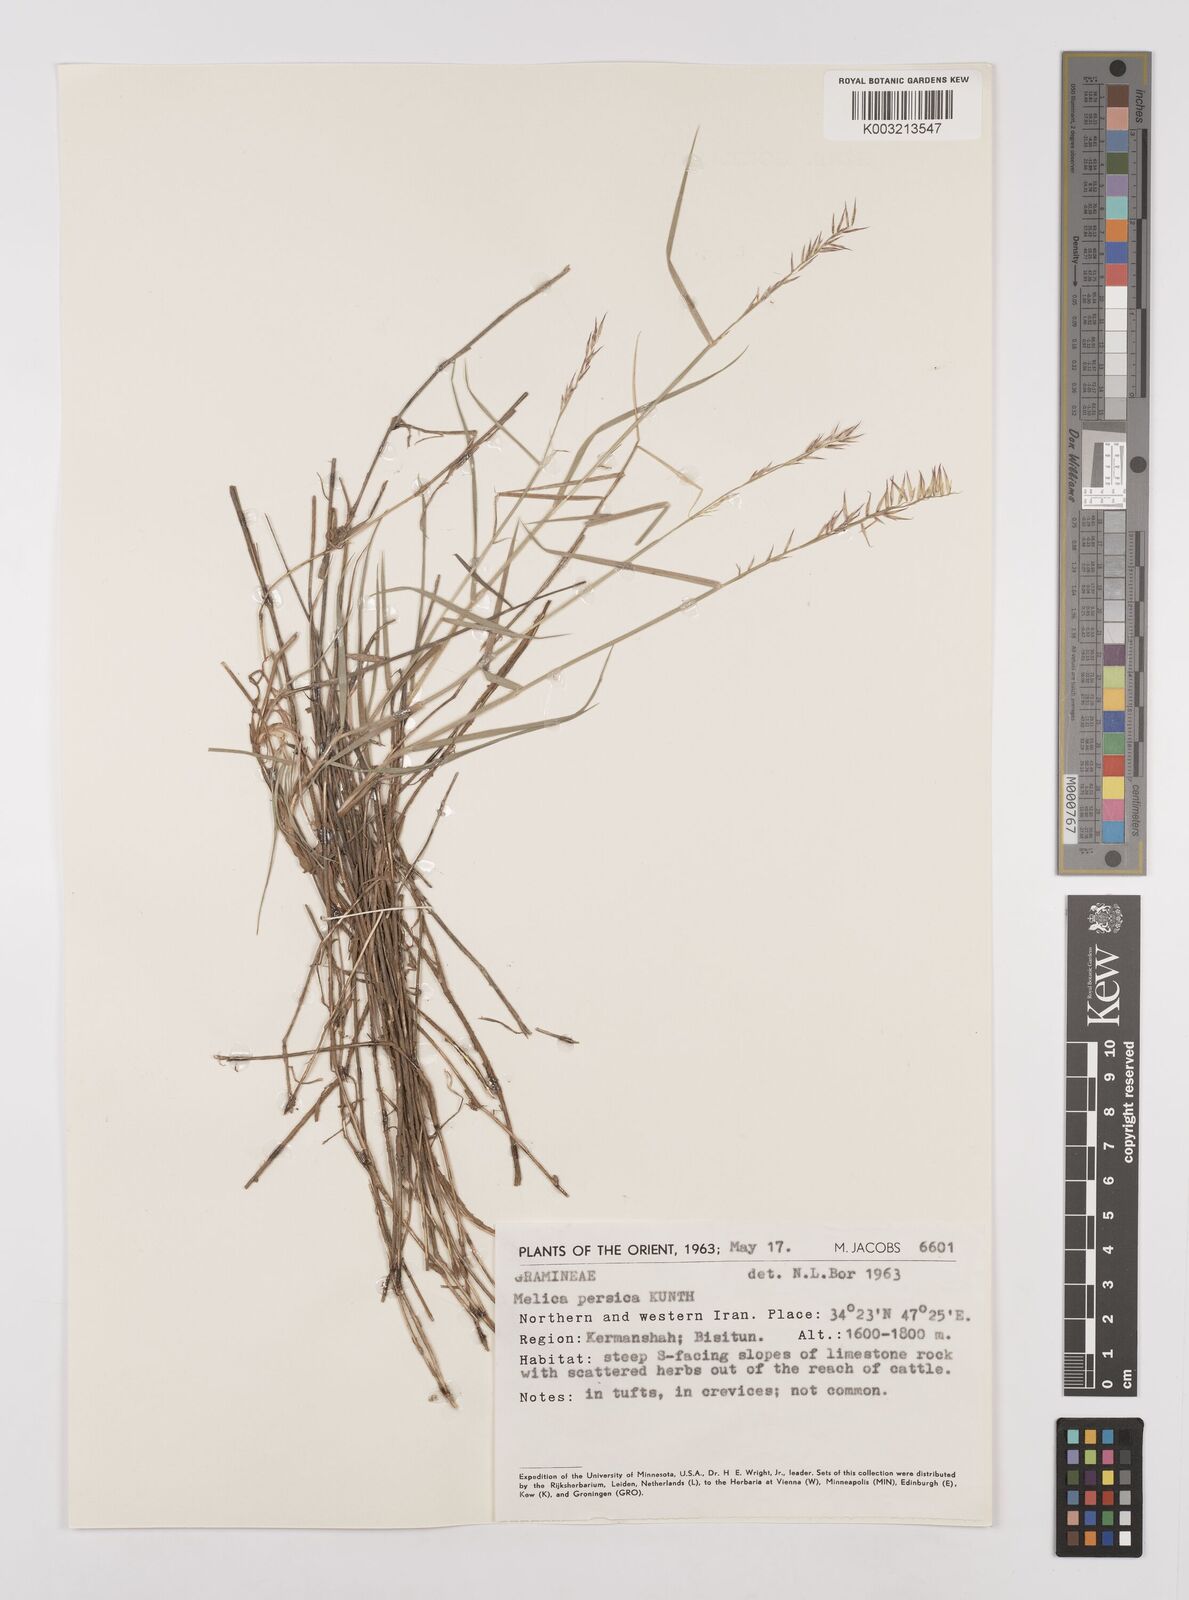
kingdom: Plantae
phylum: Tracheophyta
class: Liliopsida
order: Poales
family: Poaceae
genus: Melica
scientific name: Melica persica
